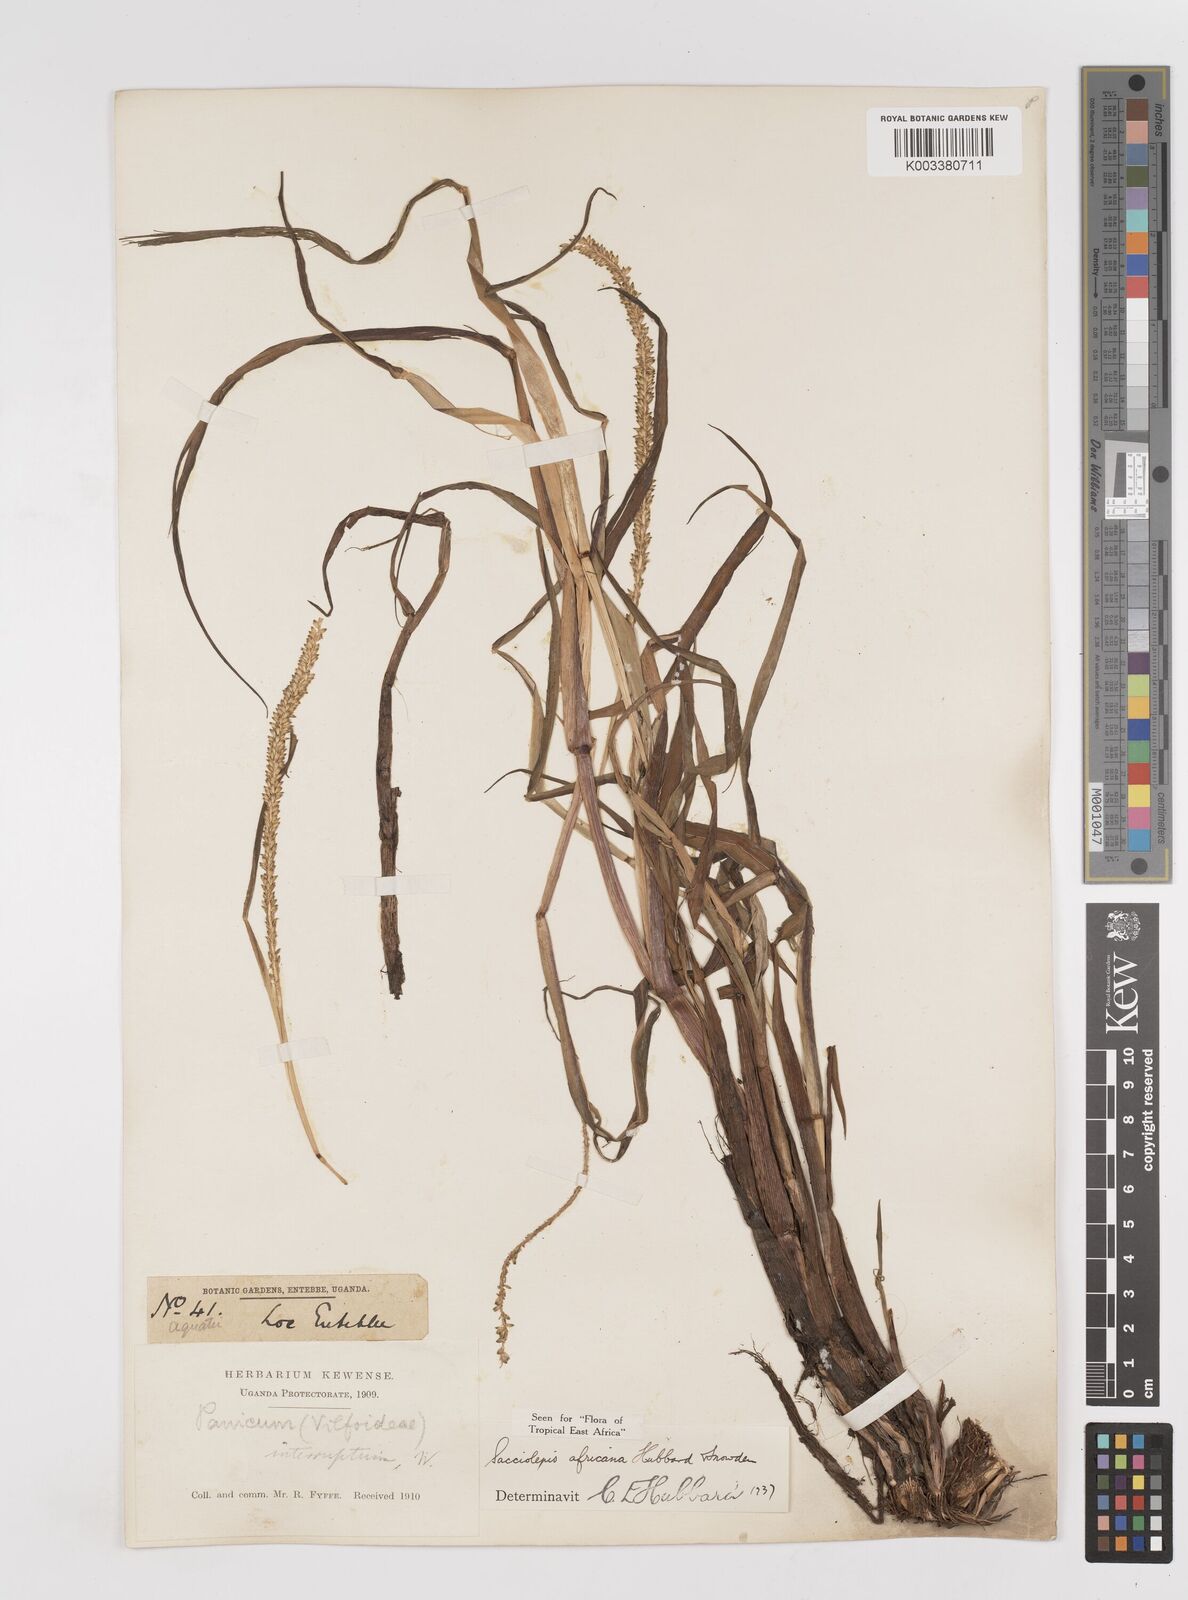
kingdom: Plantae
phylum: Tracheophyta
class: Liliopsida
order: Poales
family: Poaceae
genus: Sacciolepis
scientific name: Sacciolepis africana
